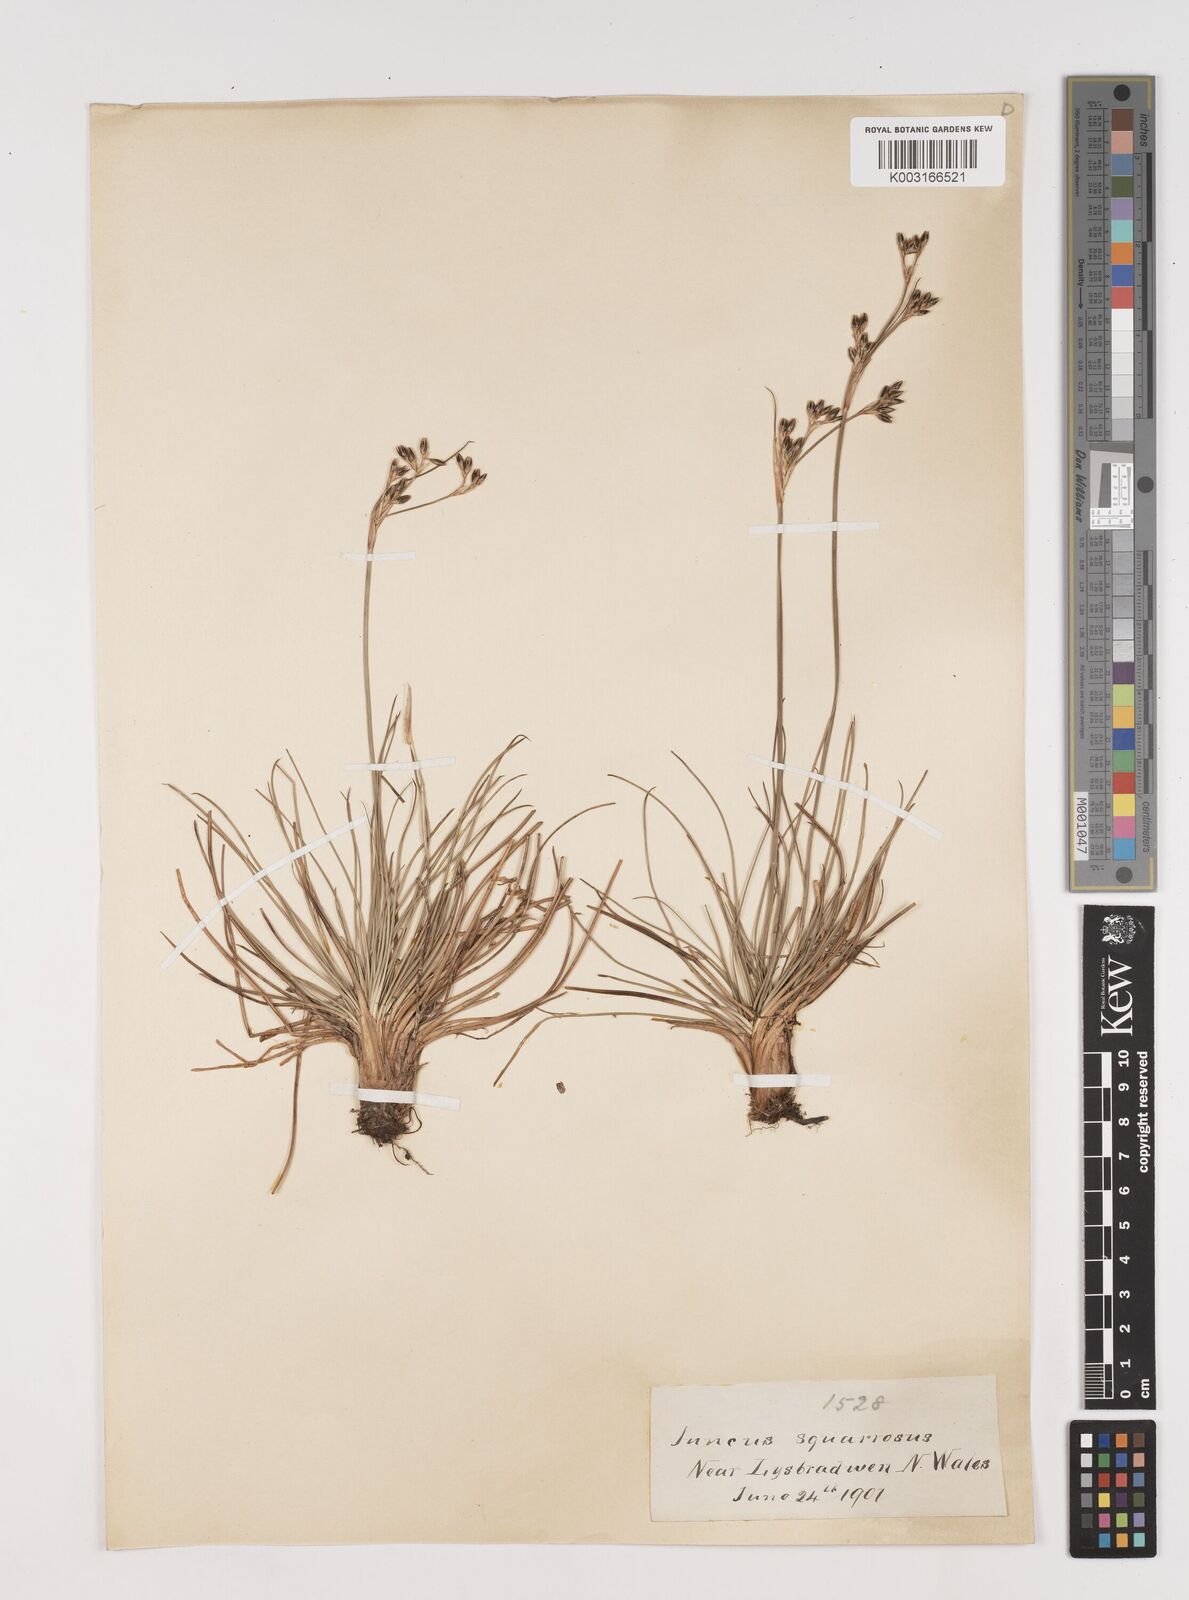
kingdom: Plantae
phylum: Tracheophyta
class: Liliopsida
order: Poales
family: Juncaceae
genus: Juncus
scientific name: Juncus squarrosus
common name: Heath rush
